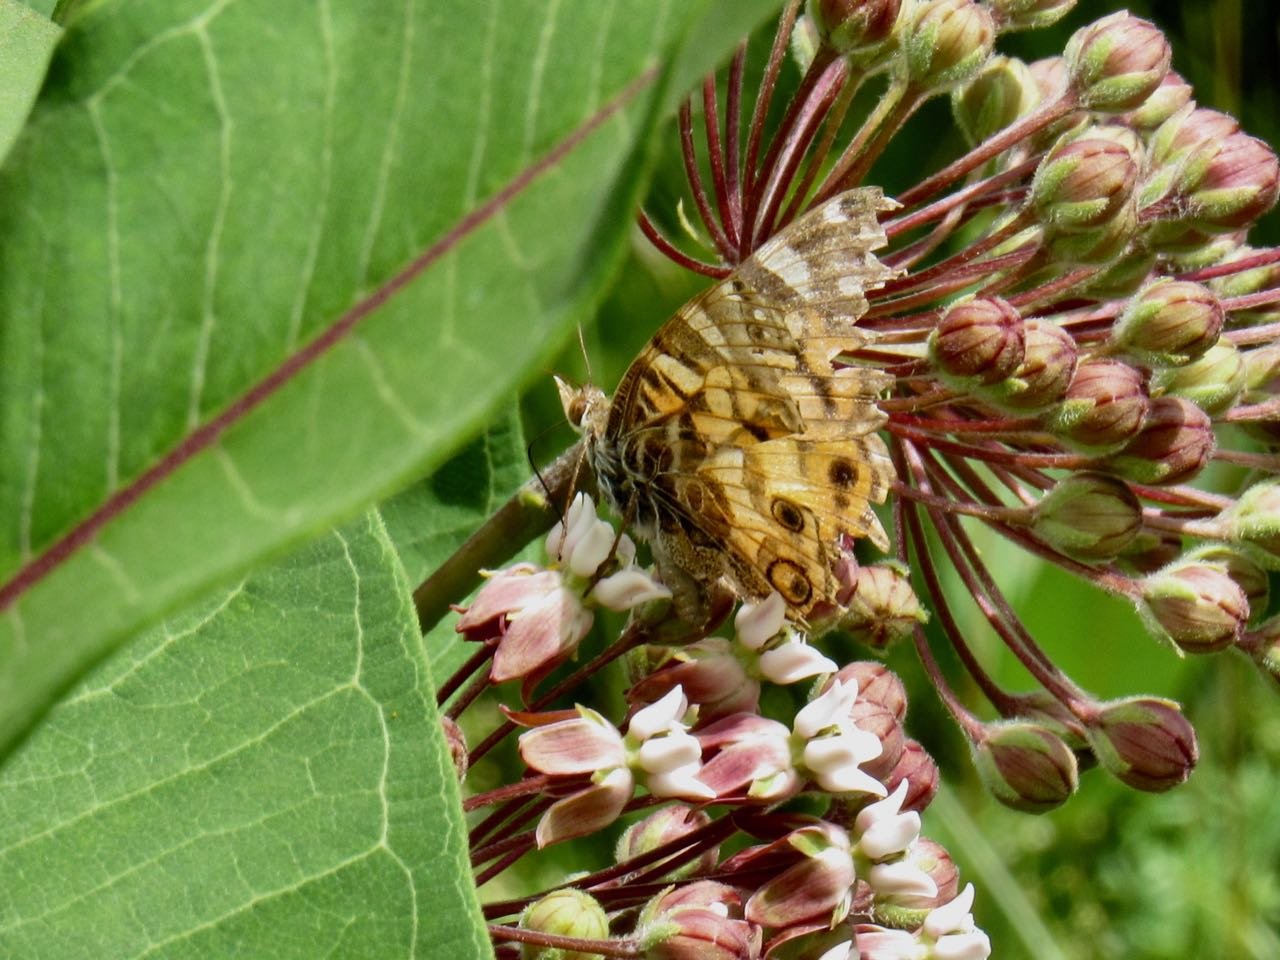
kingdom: Animalia
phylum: Arthropoda
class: Insecta
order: Lepidoptera
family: Nymphalidae
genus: Vanessa
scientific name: Vanessa virginiensis
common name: American Lady
